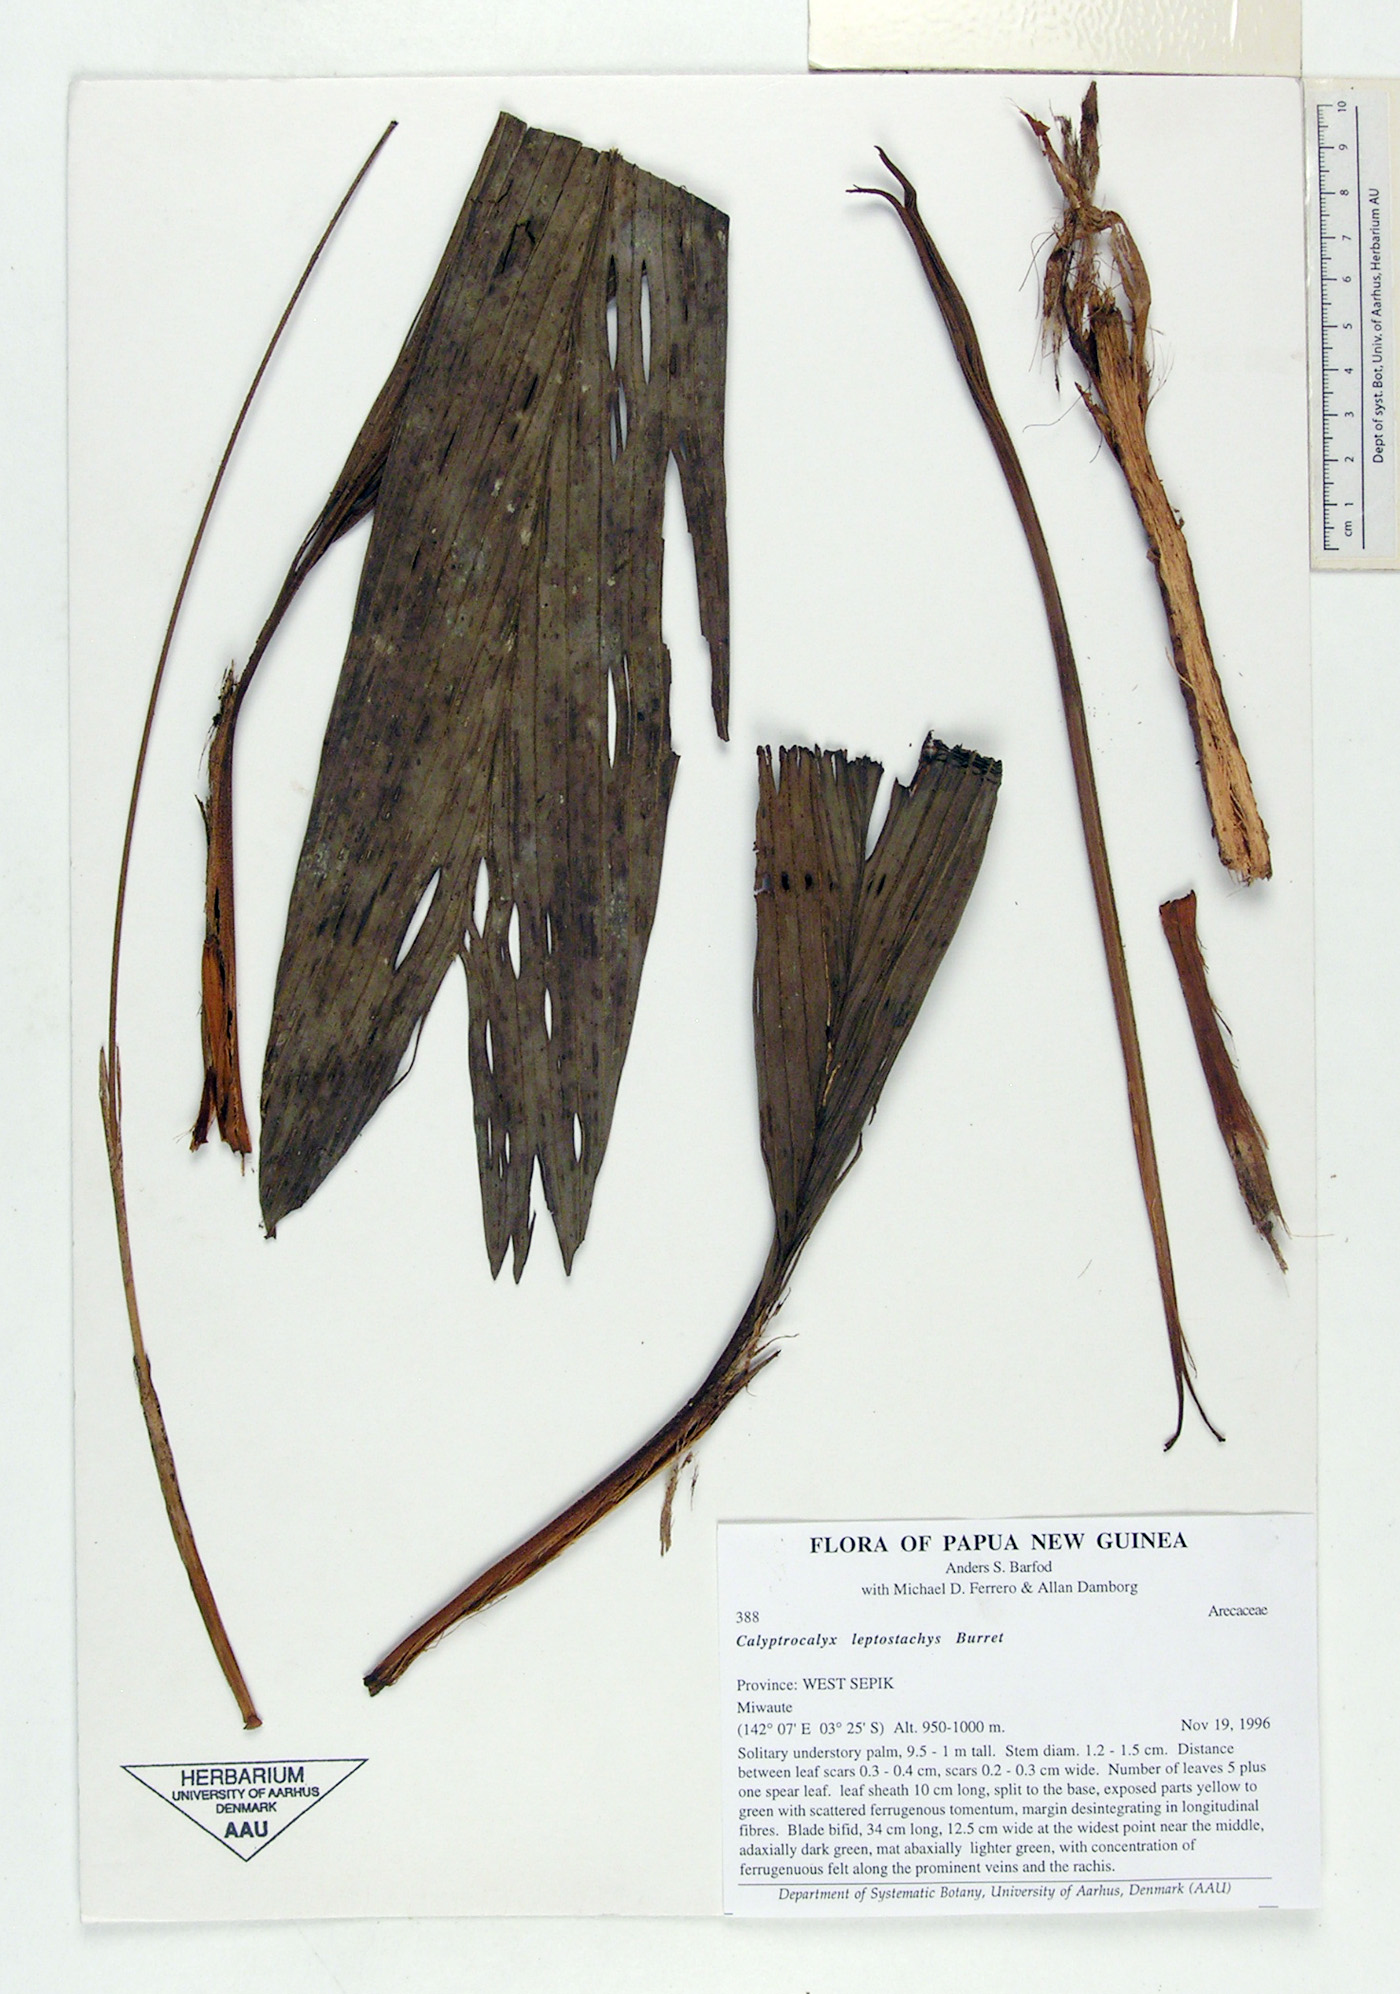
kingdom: Plantae
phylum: Tracheophyta
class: Liliopsida
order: Arecales
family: Arecaceae
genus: Calyptrocalyx
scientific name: Calyptrocalyx sessiliflorus
